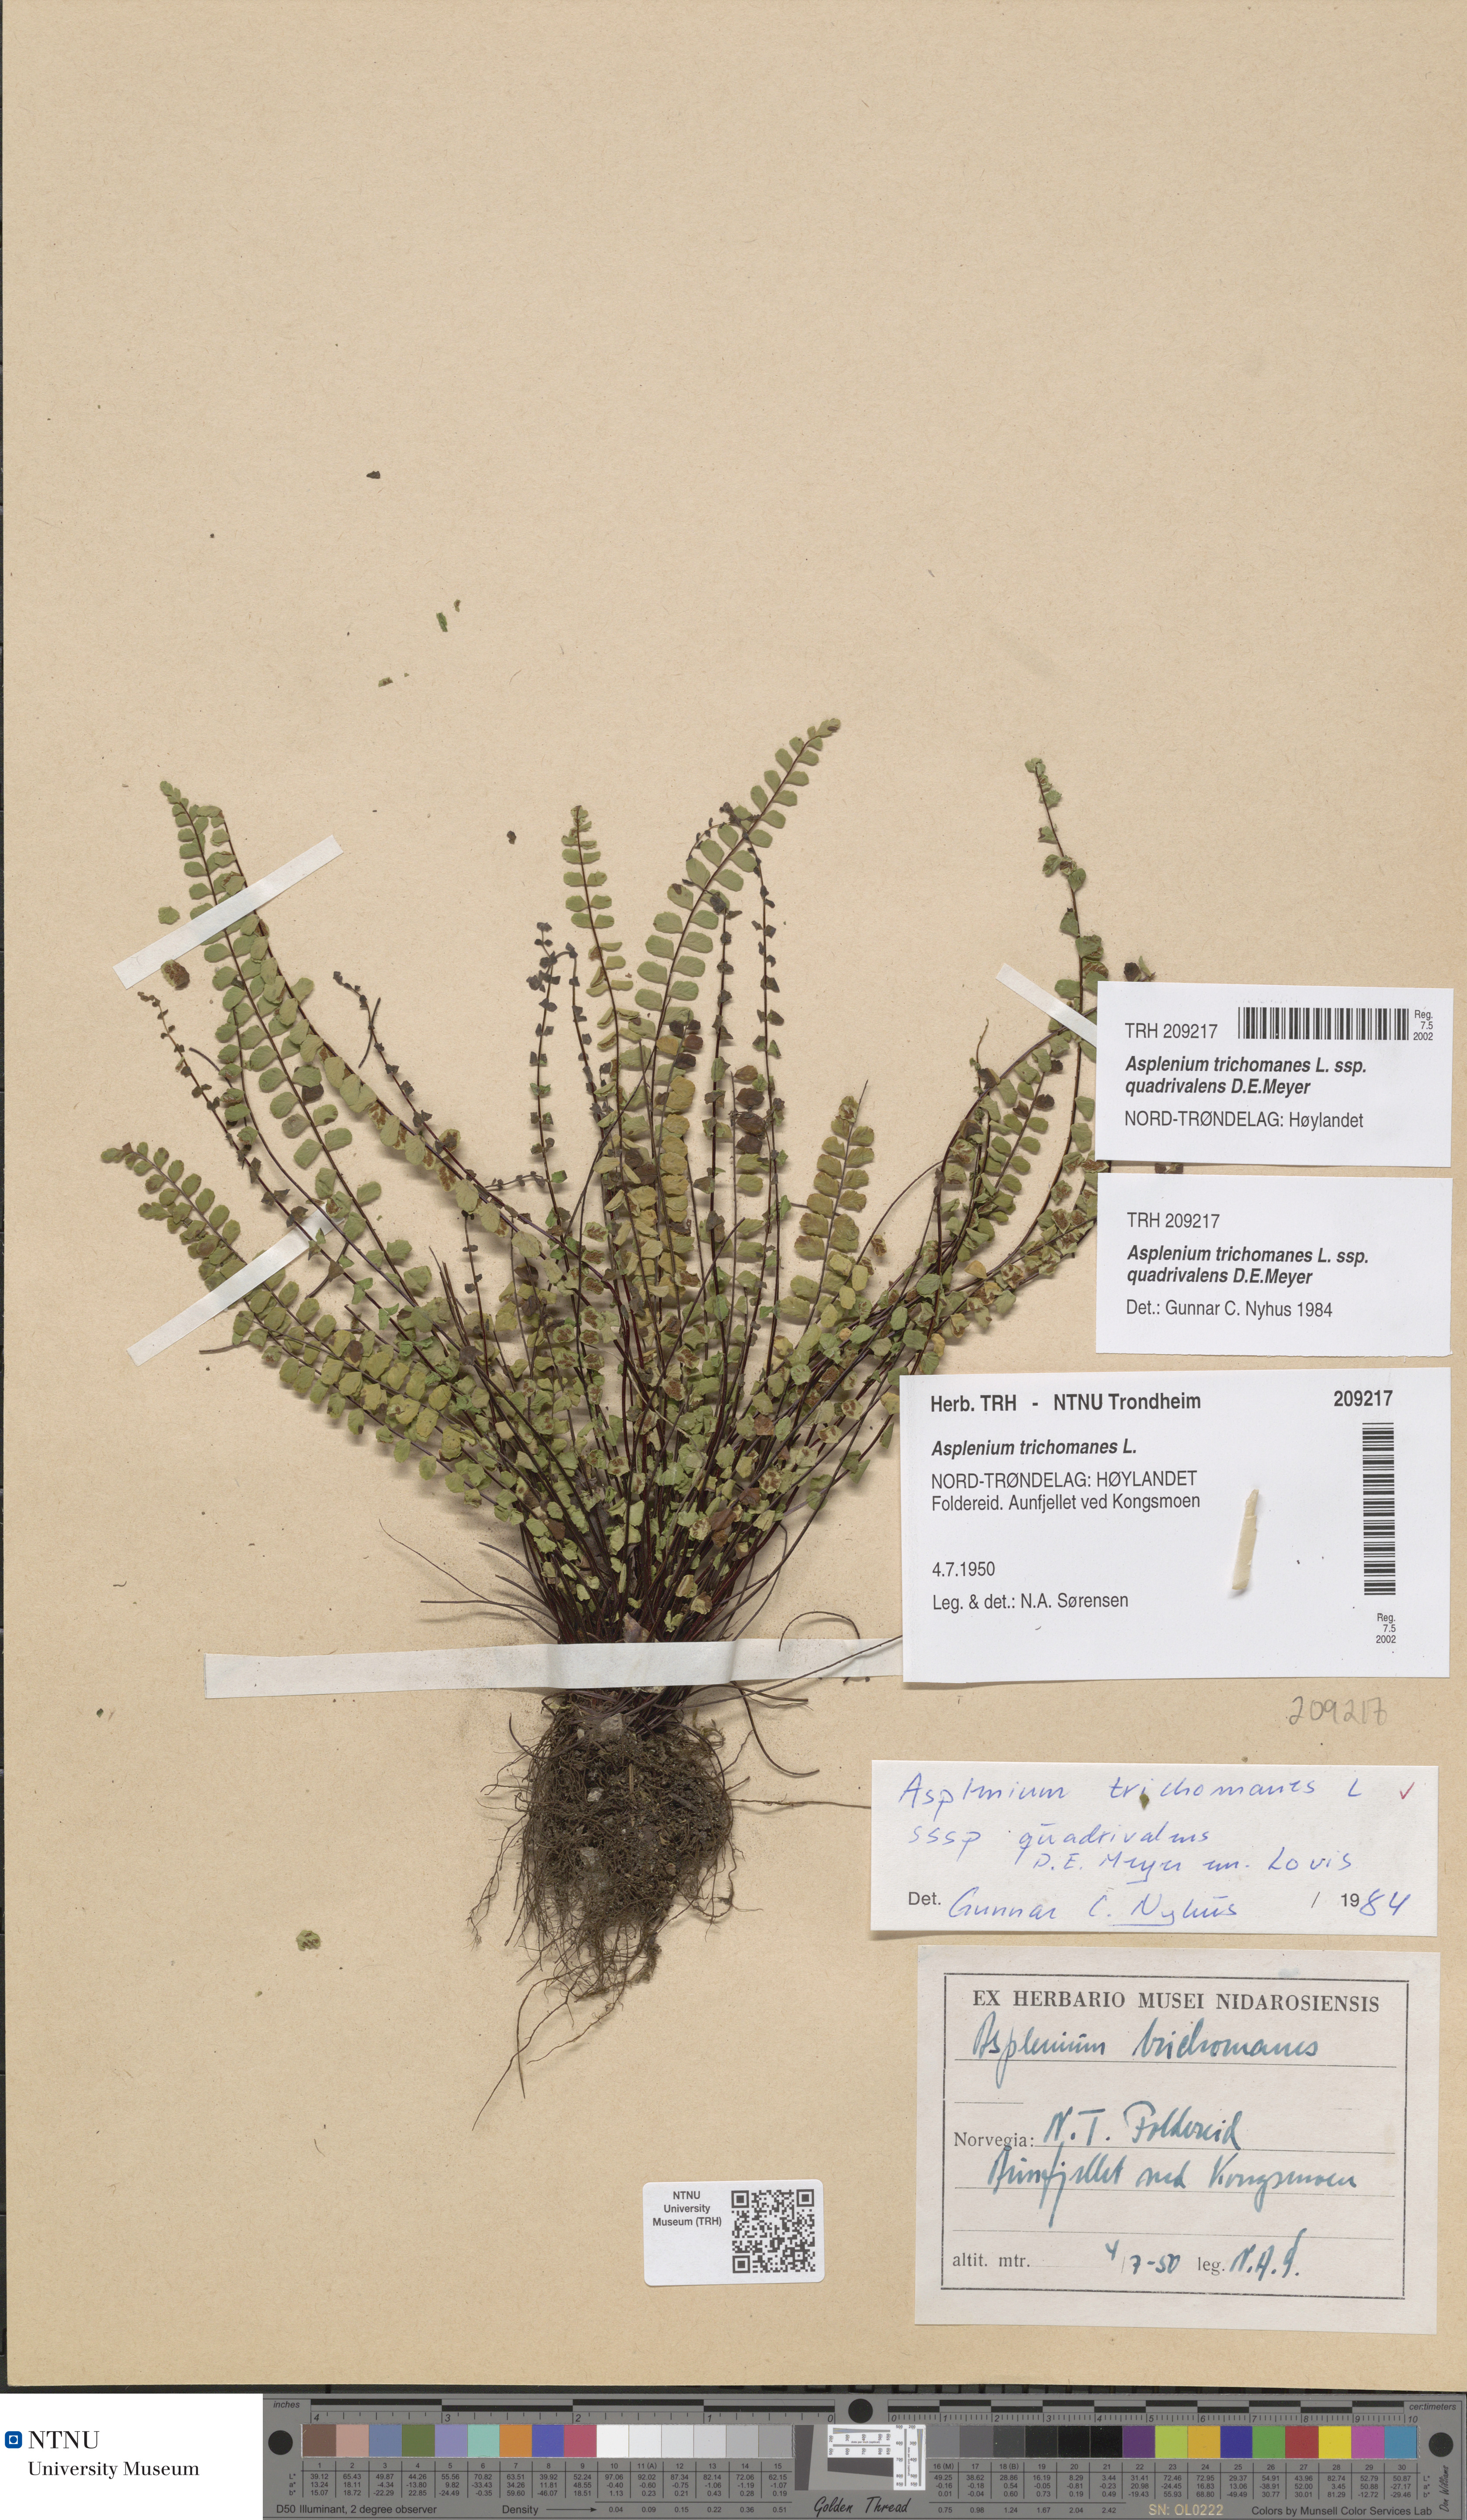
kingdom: Plantae
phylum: Tracheophyta
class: Polypodiopsida
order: Polypodiales
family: Aspleniaceae
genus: Asplenium
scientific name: Asplenium quadrivalens
